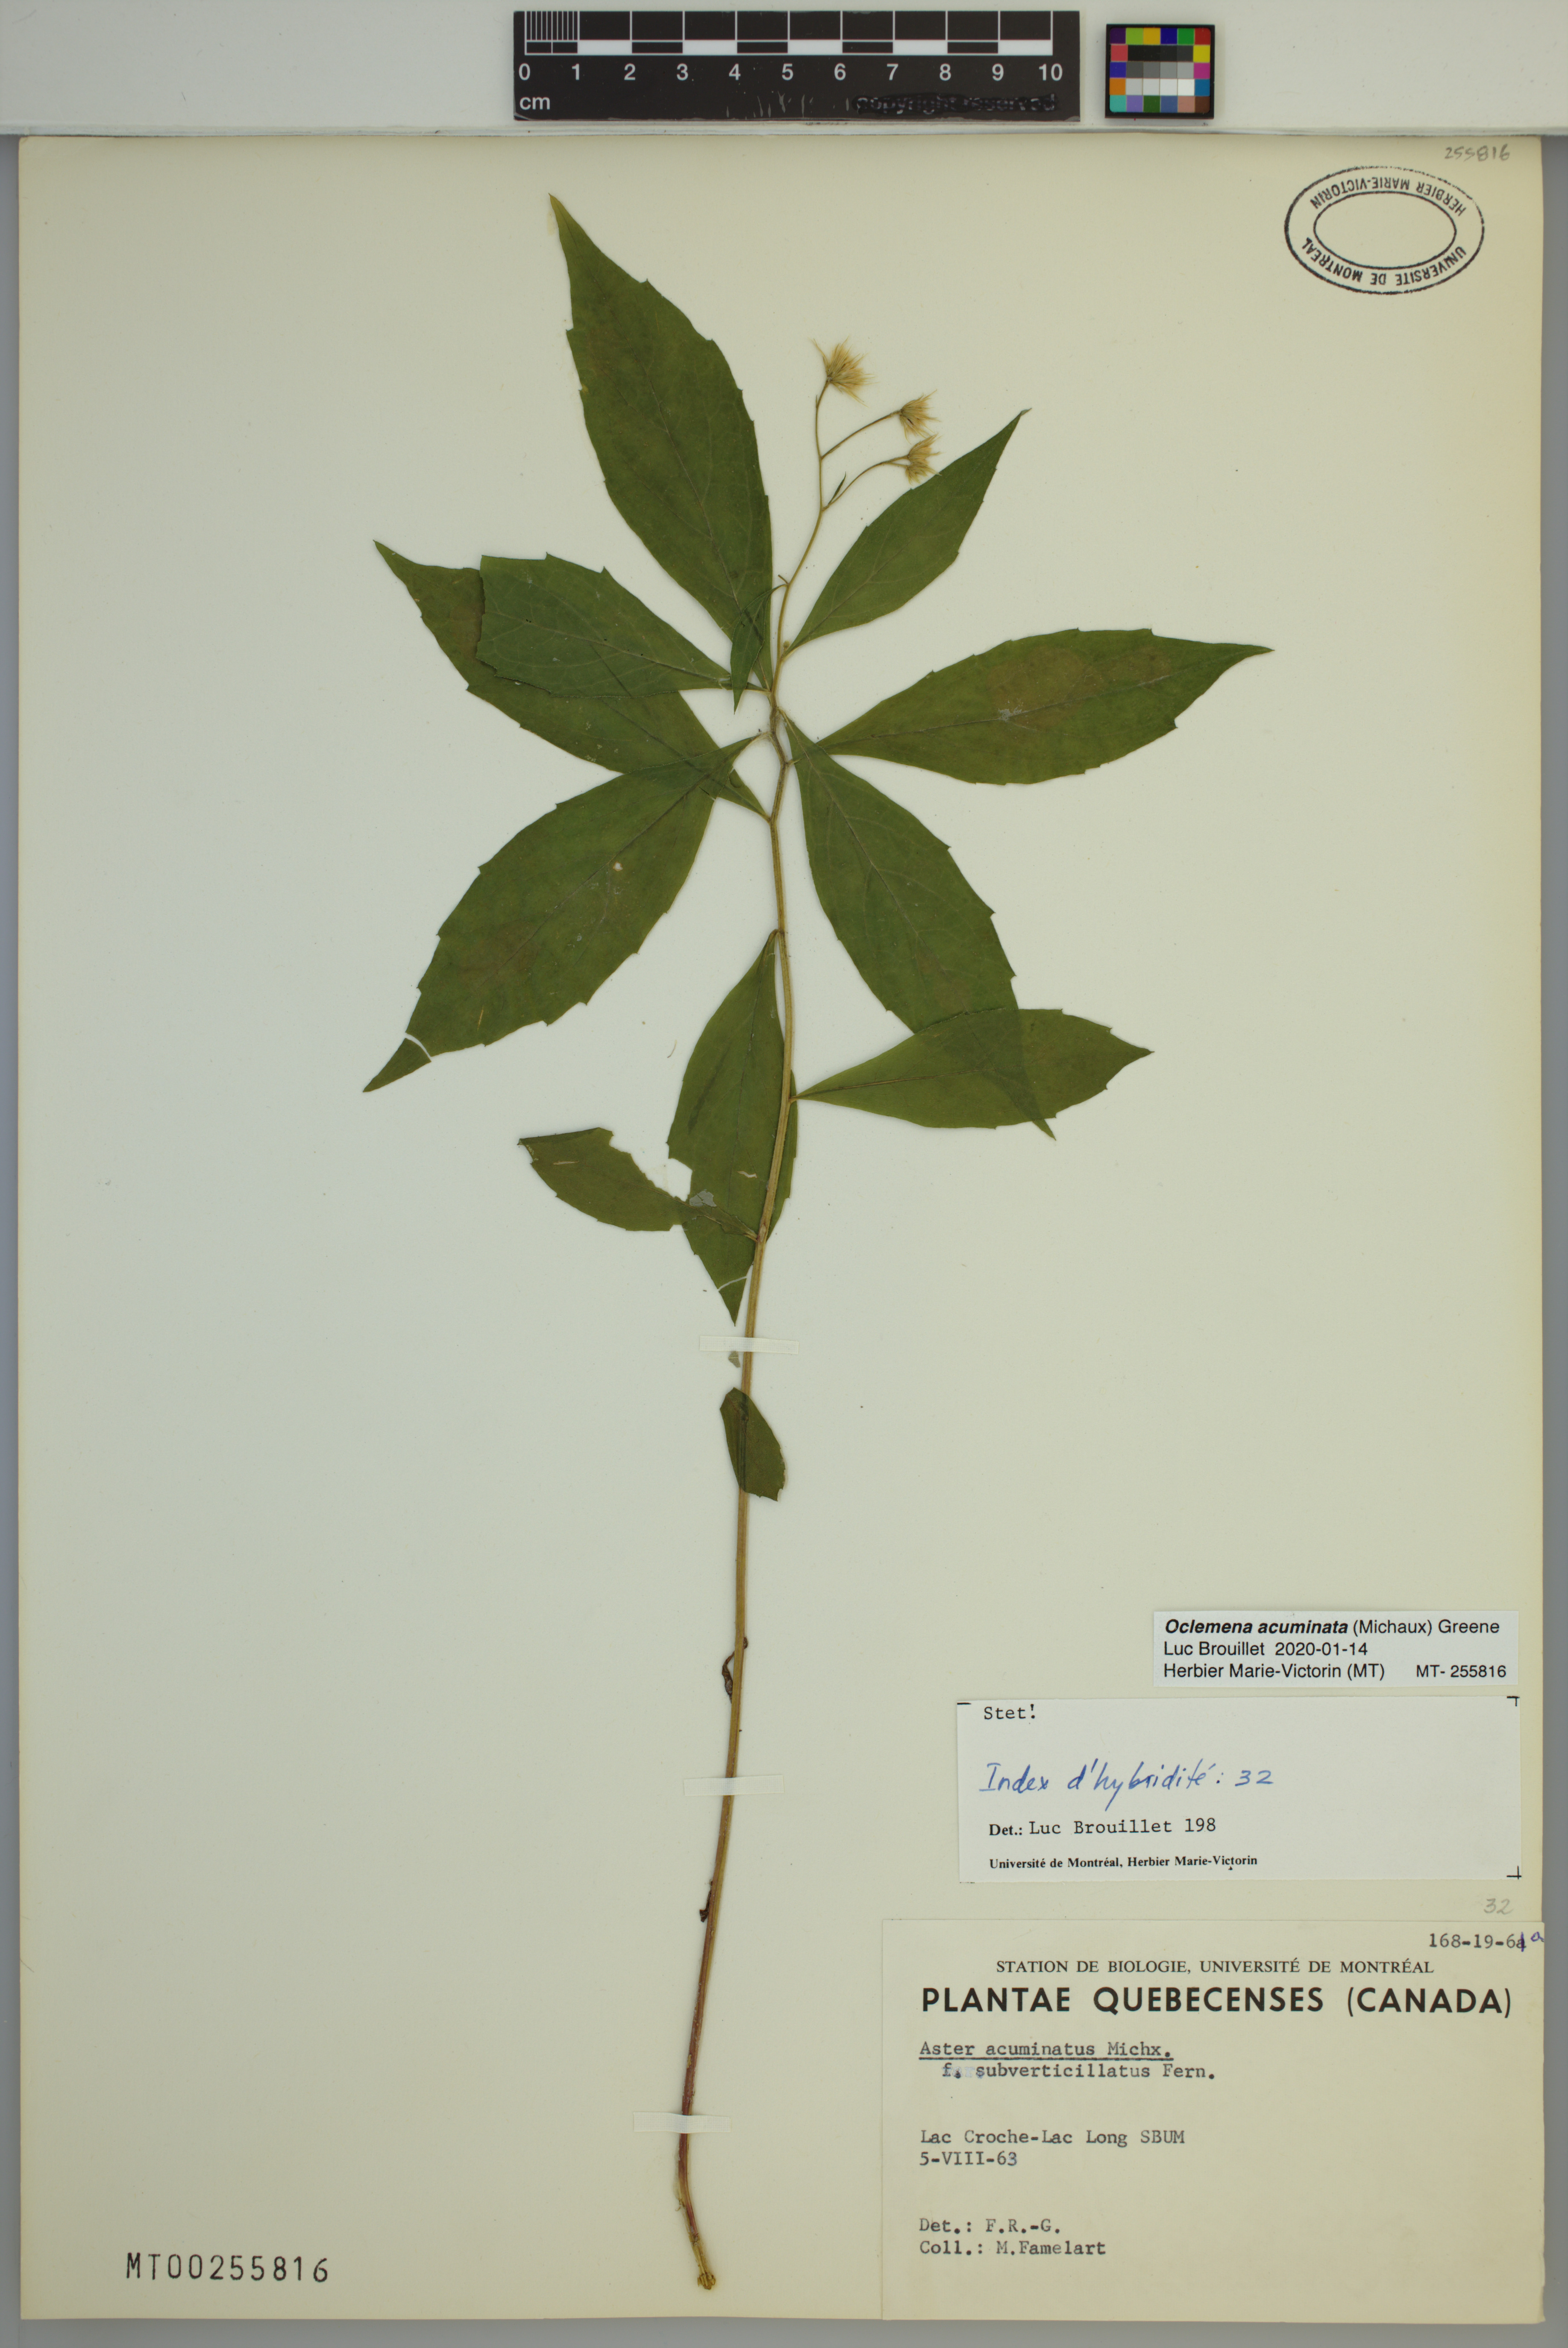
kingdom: Plantae
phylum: Tracheophyta
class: Magnoliopsida
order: Asterales
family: Asteraceae
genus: Oclemena
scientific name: Oclemena acuminata
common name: Mountain aster
